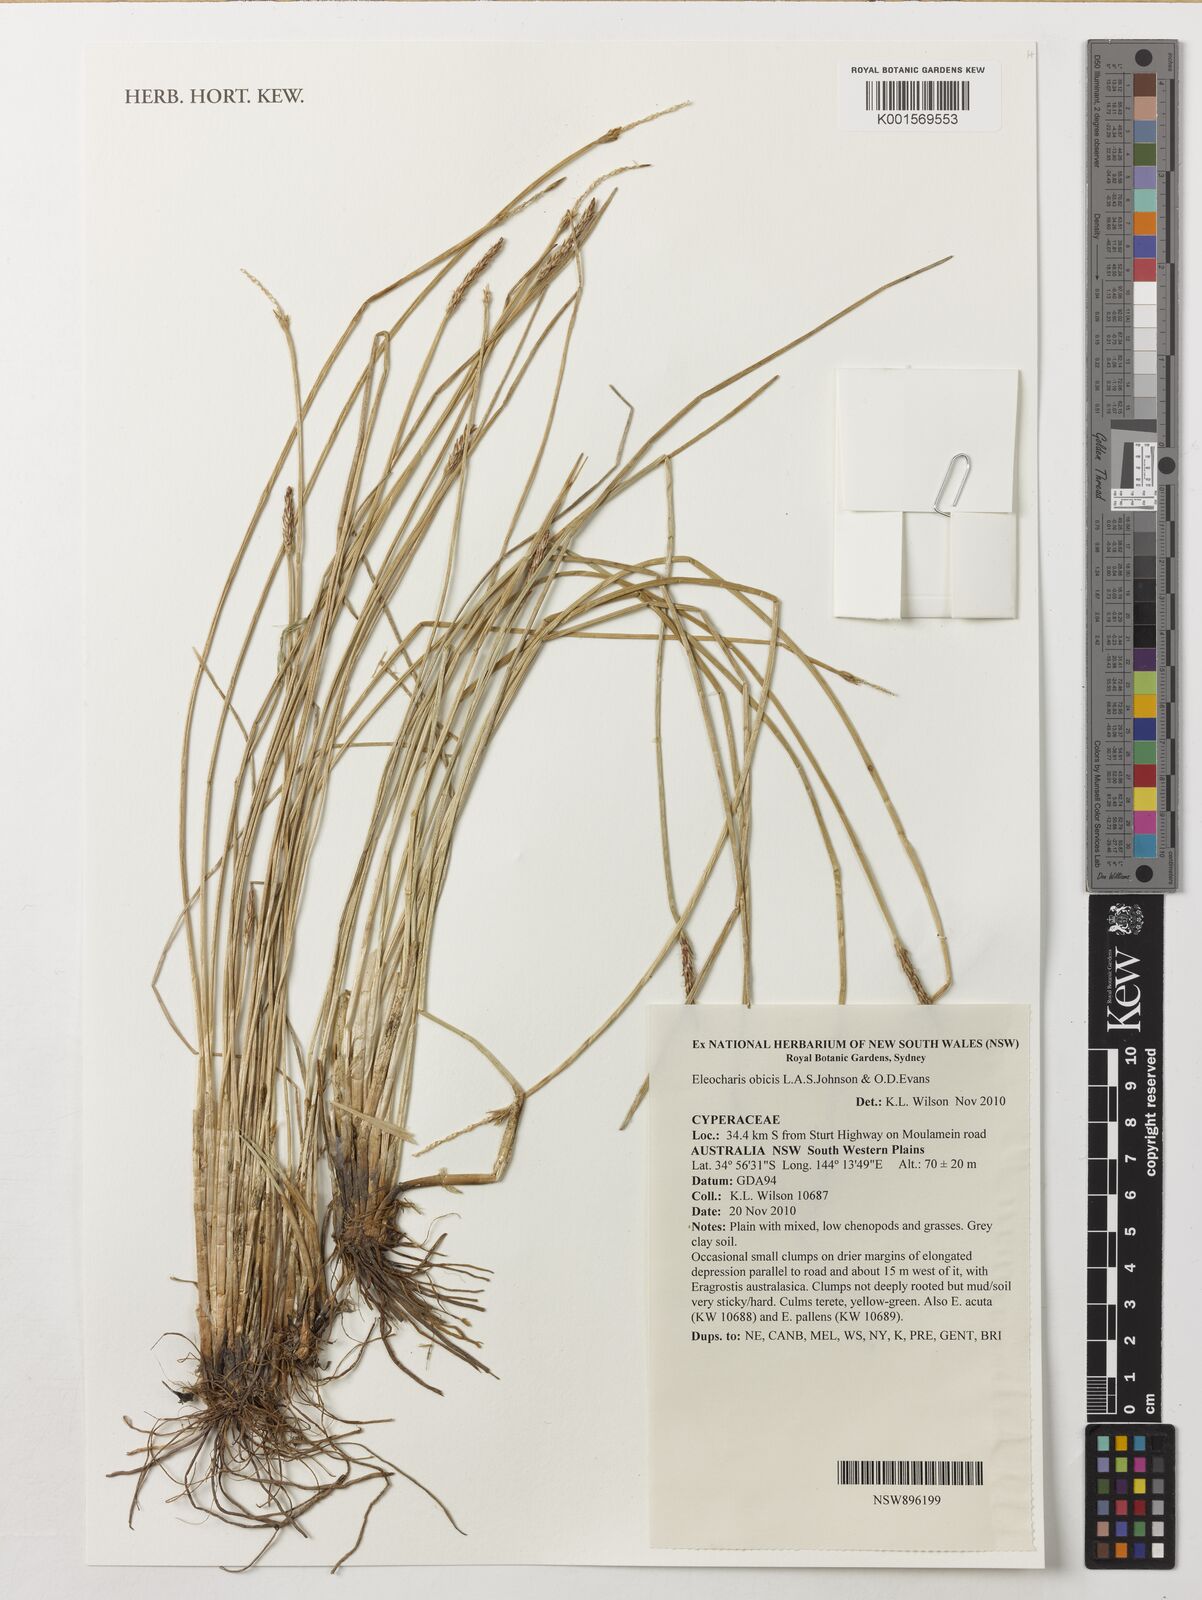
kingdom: Plantae
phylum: Tracheophyta
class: Liliopsida
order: Poales
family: Cyperaceae
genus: Eleocharis
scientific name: Eleocharis obicis
